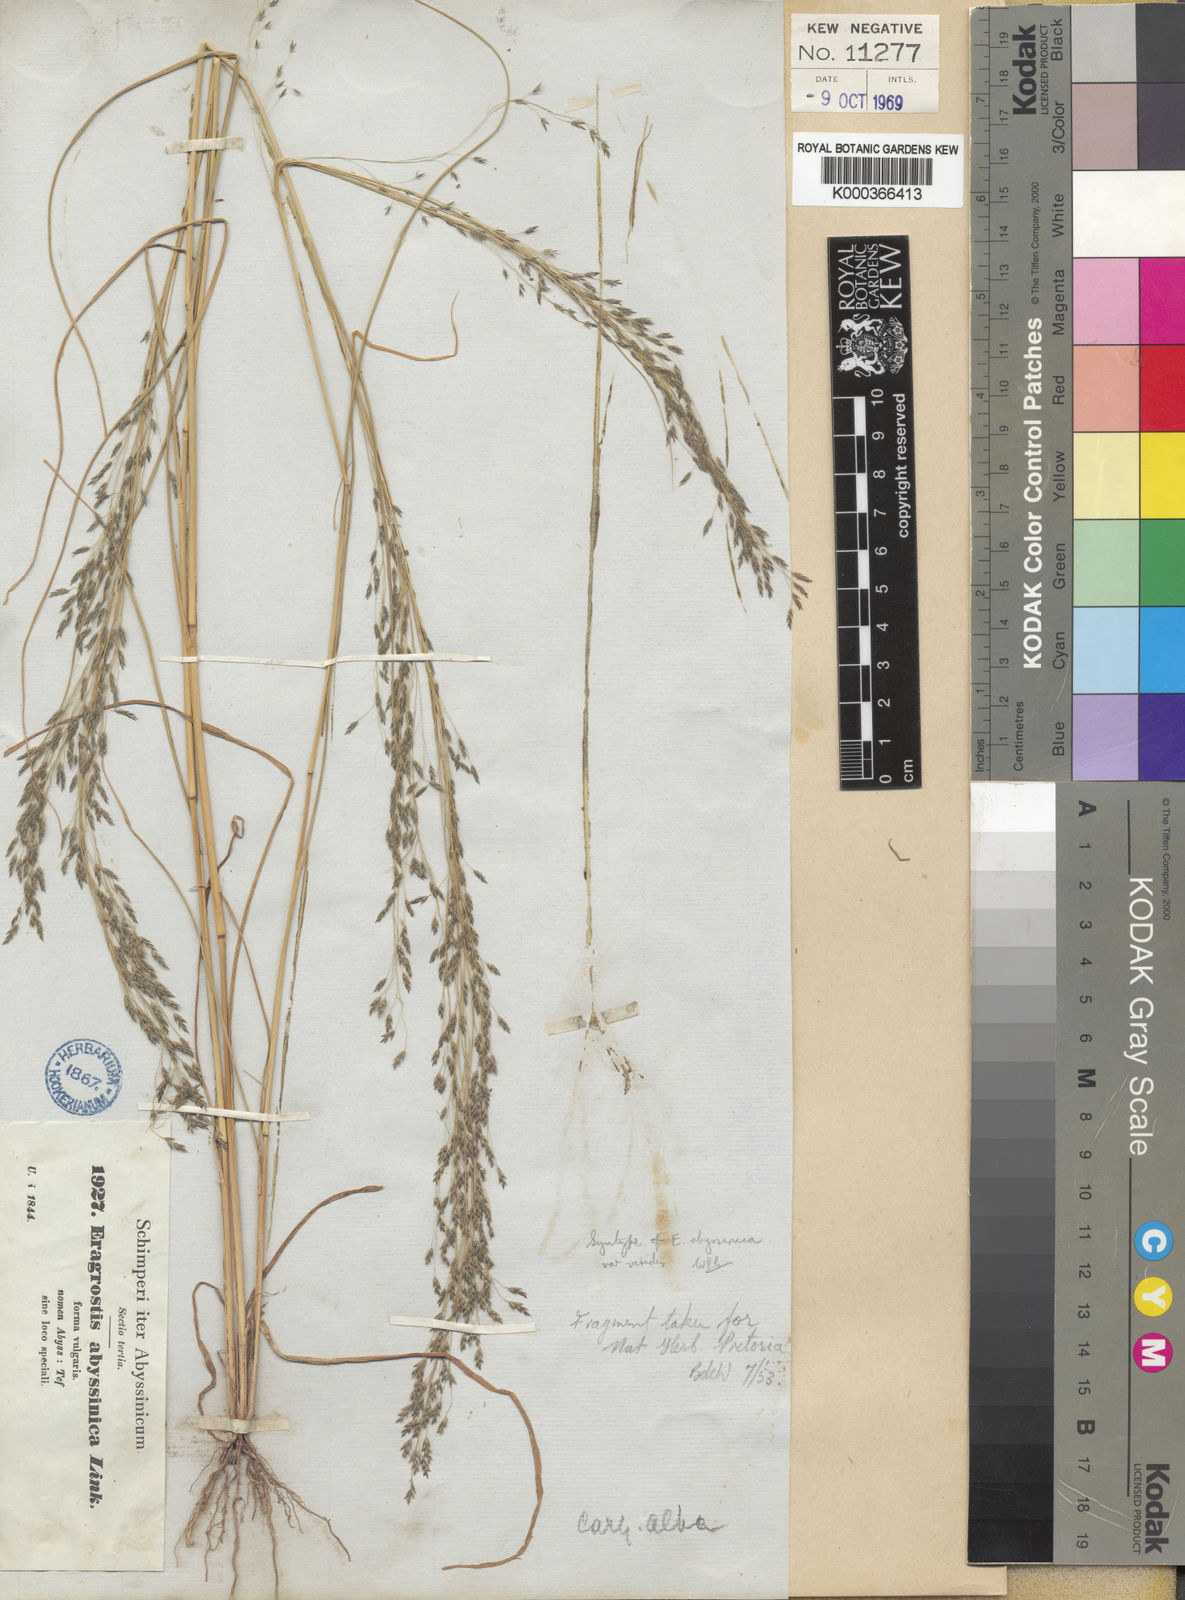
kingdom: Plantae
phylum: Tracheophyta
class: Liliopsida
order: Poales
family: Poaceae
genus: Eragrostis
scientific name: Eragrostis tef
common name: Teff
